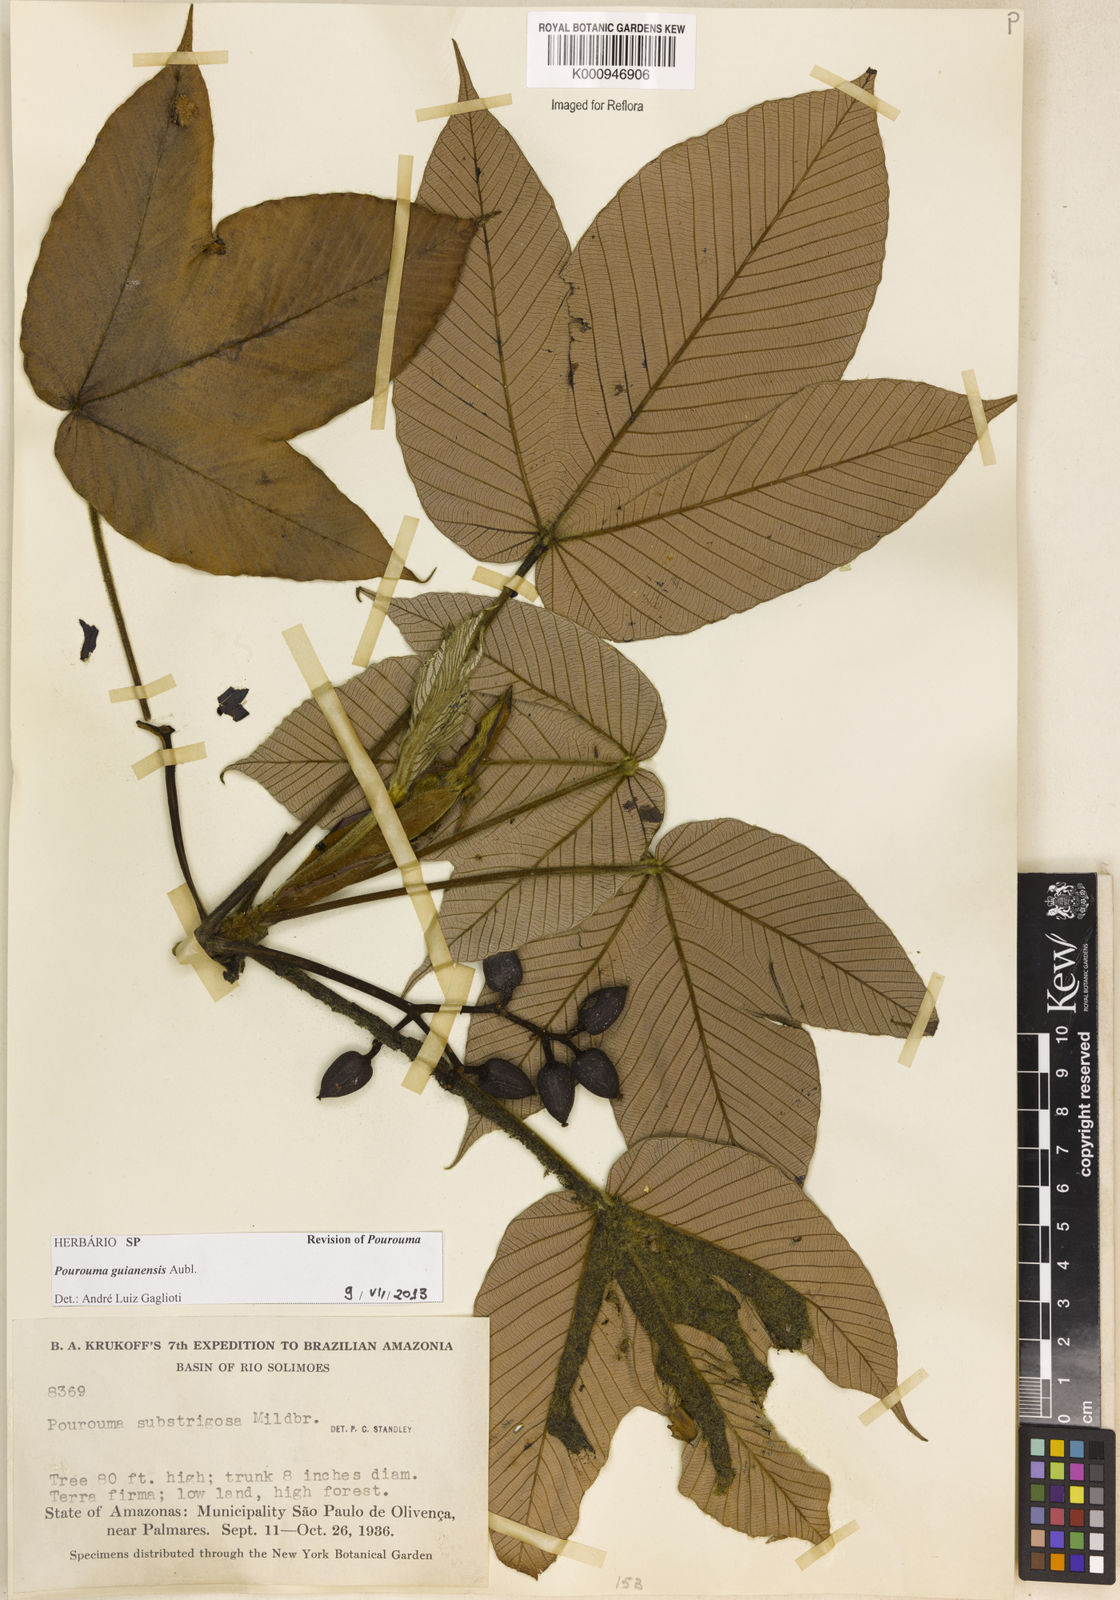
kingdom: Plantae
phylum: Tracheophyta
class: Magnoliopsida
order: Rosales
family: Urticaceae
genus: Pourouma
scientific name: Pourouma guianensis
